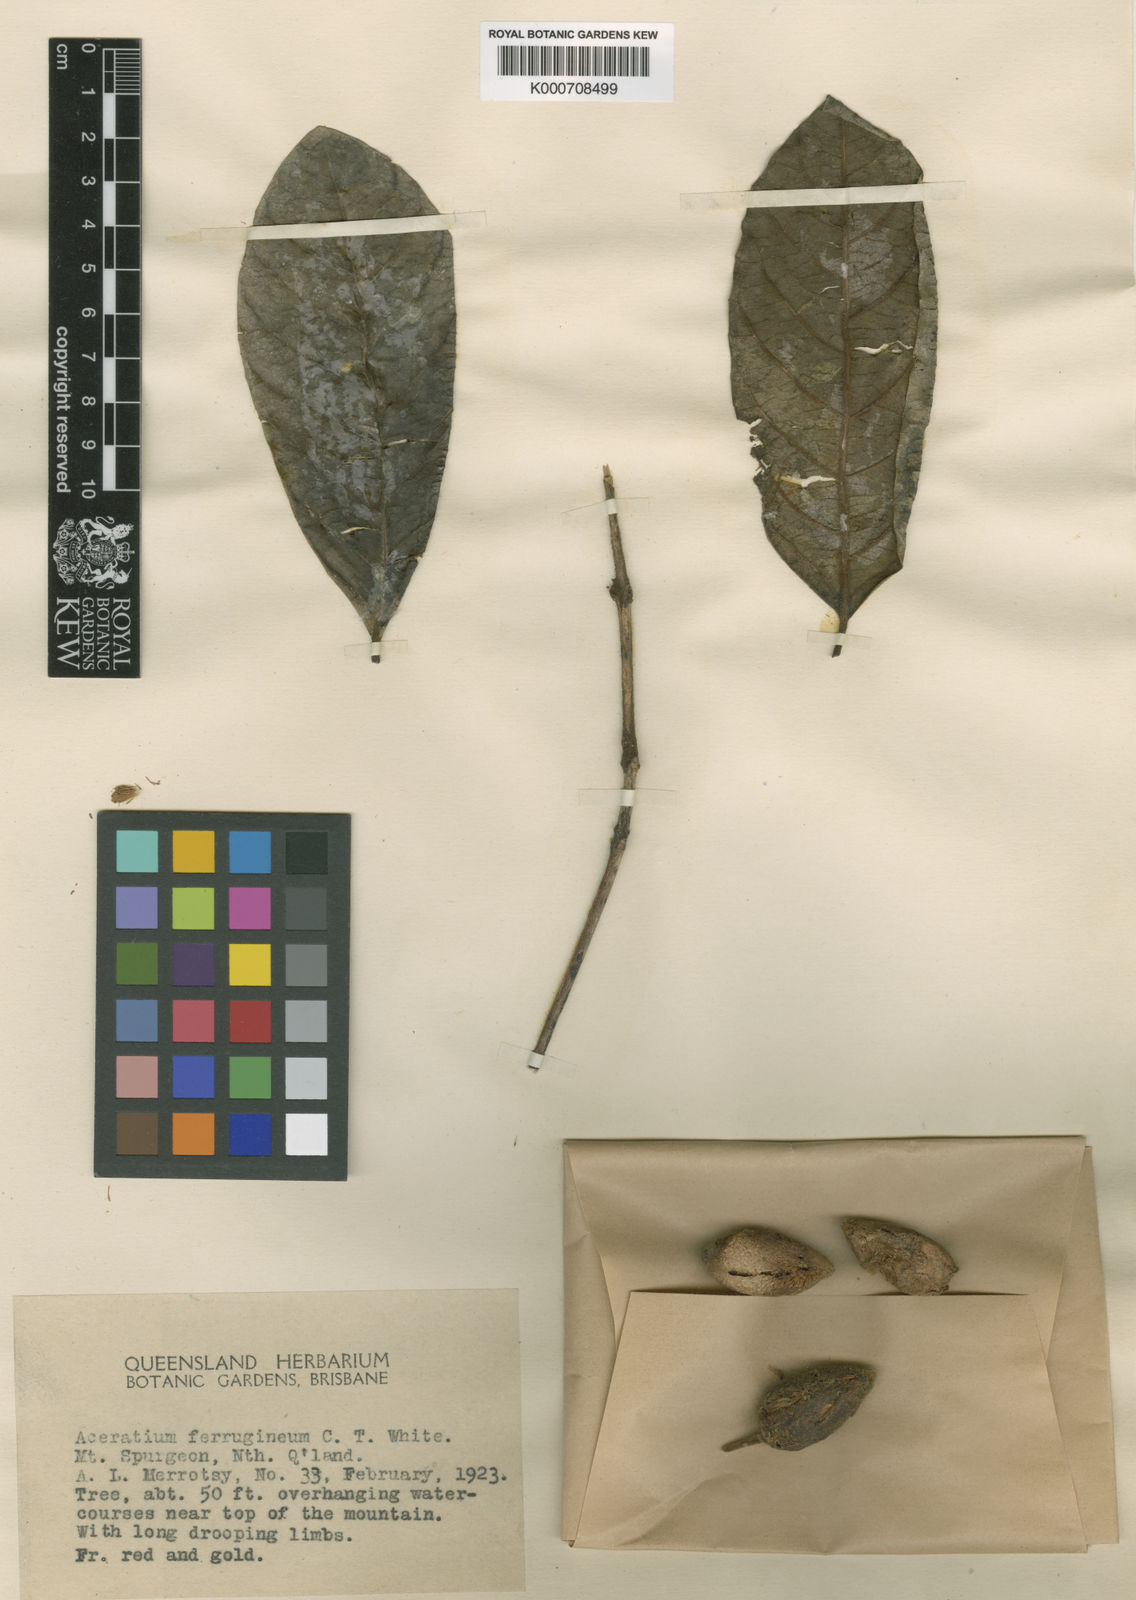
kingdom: Plantae
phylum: Tracheophyta
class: Magnoliopsida
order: Oxalidales
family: Elaeocarpaceae
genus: Aceratium
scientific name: Aceratium ferrugineum
